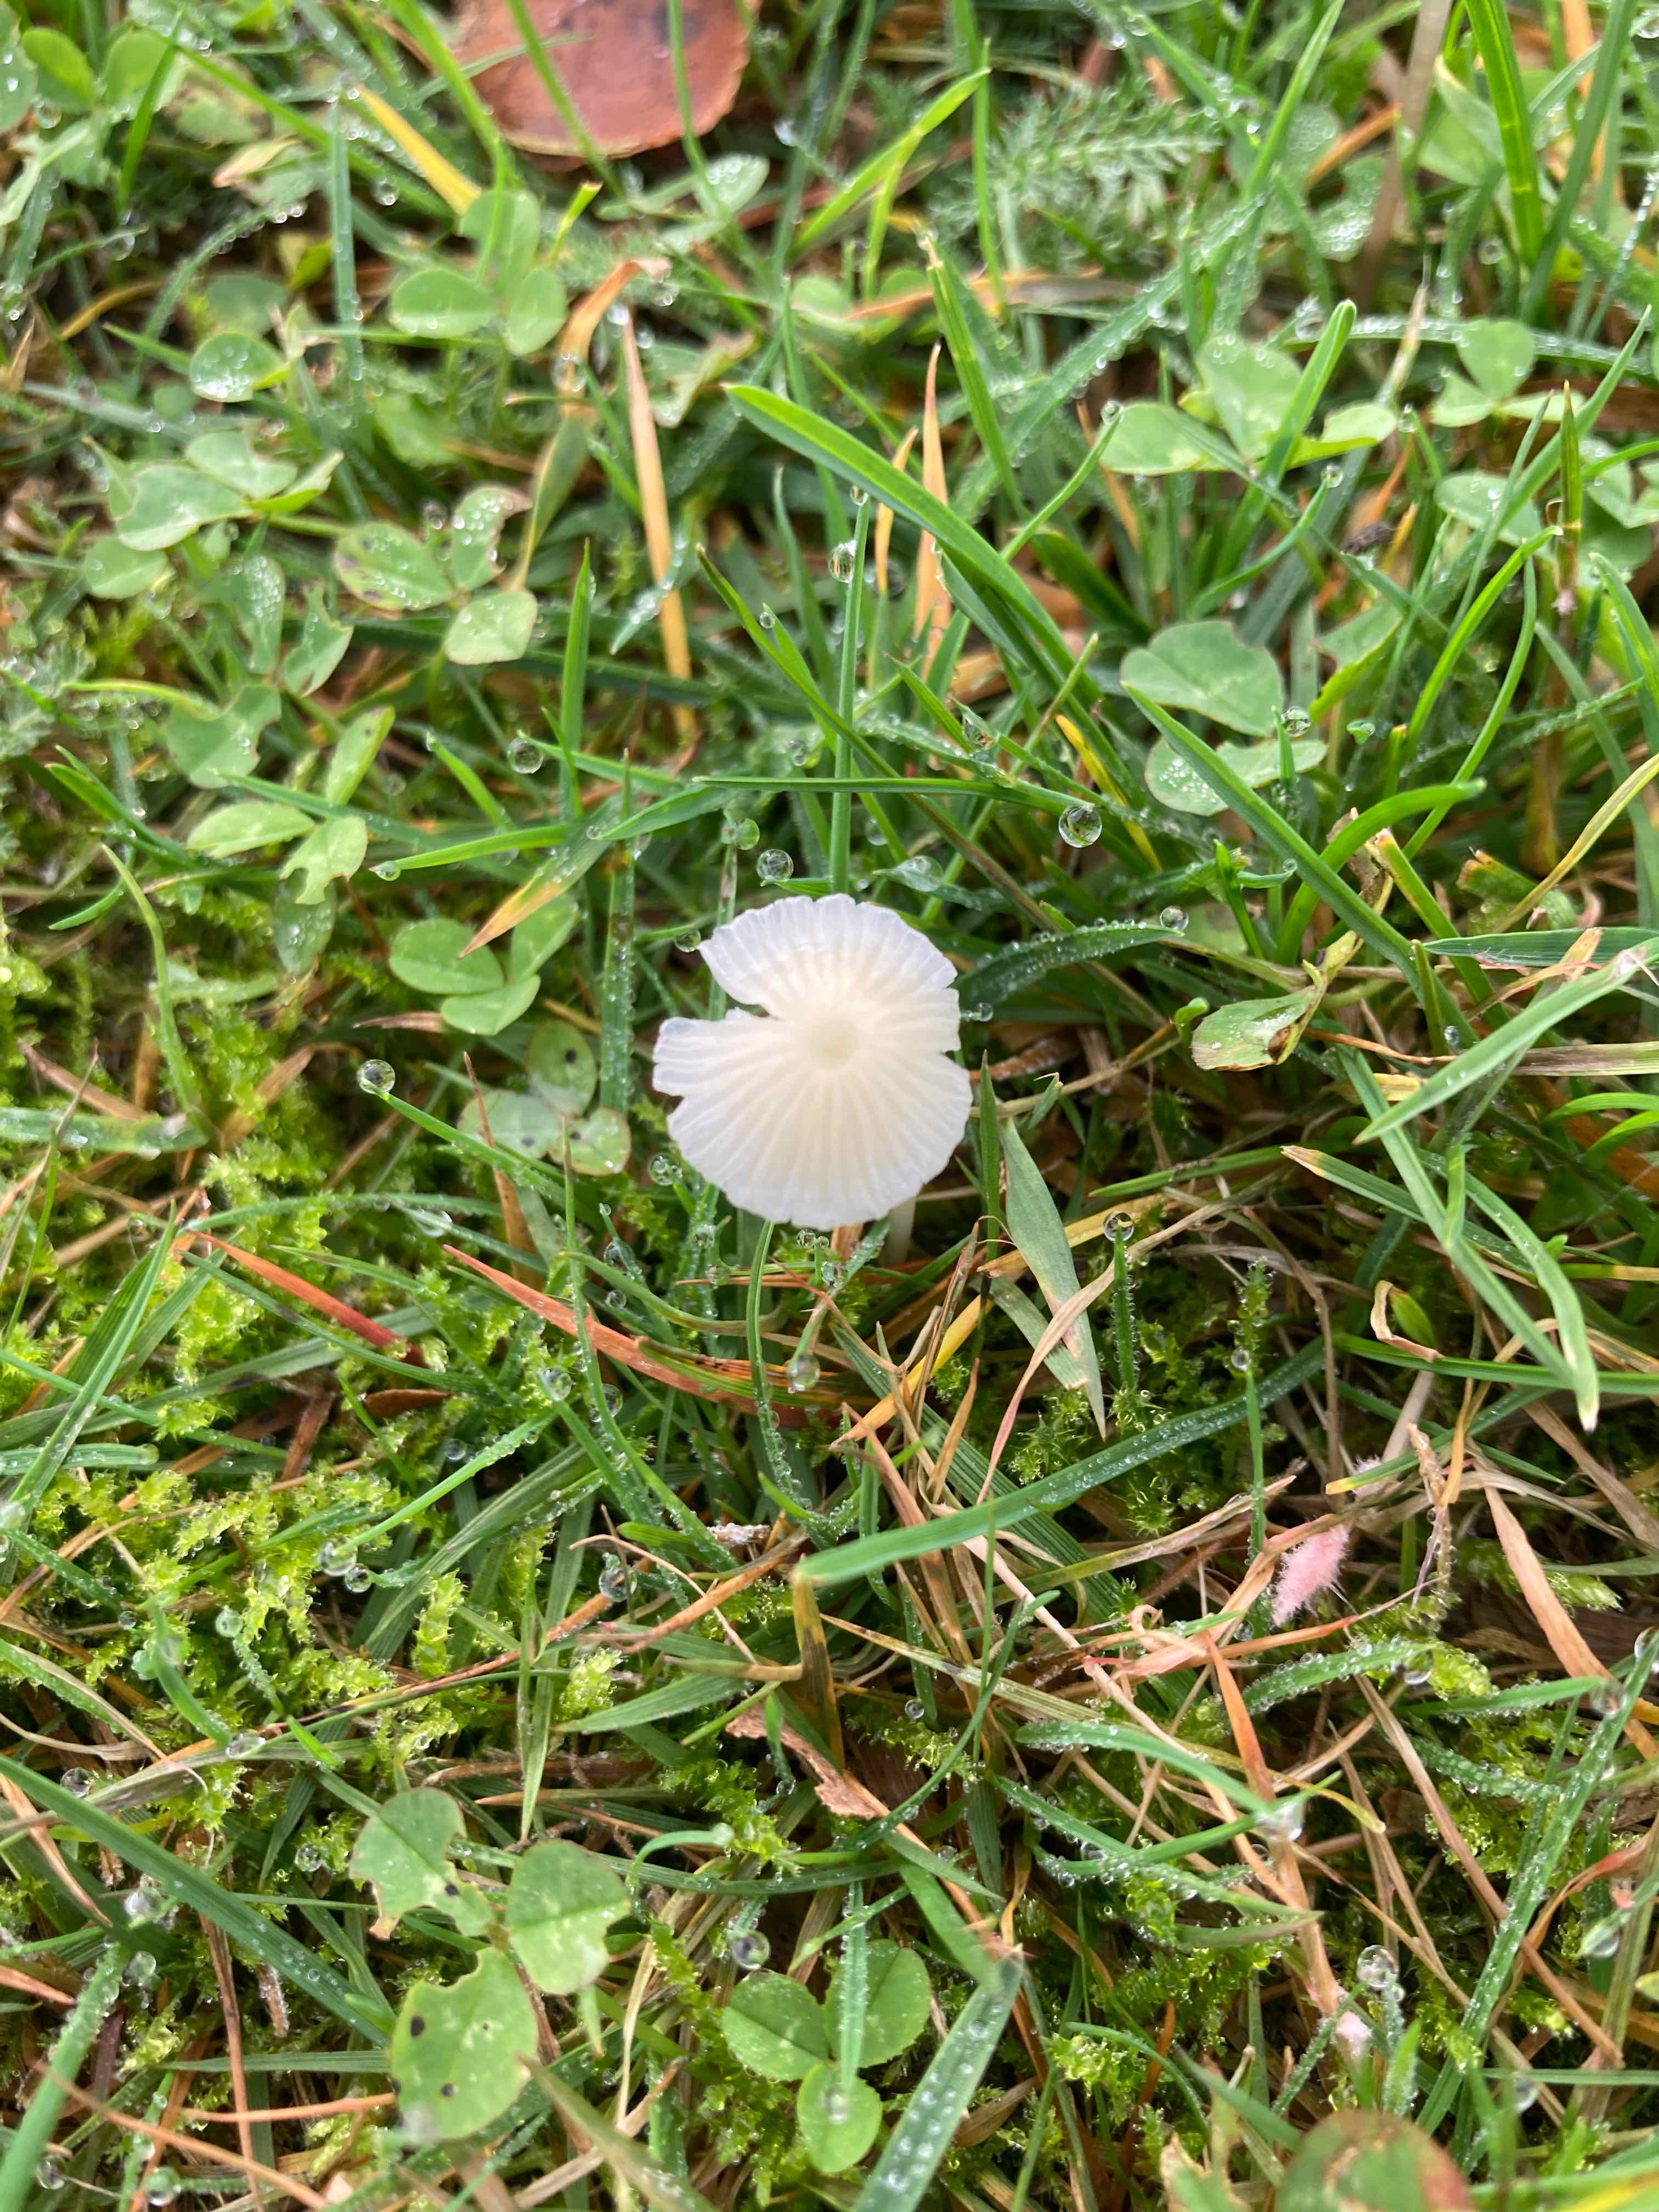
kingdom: Fungi
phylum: Basidiomycota
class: Agaricomycetes
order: Agaricales
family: Mycenaceae
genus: Atheniella
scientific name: Atheniella flavoalba
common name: gulhvid huesvamp
